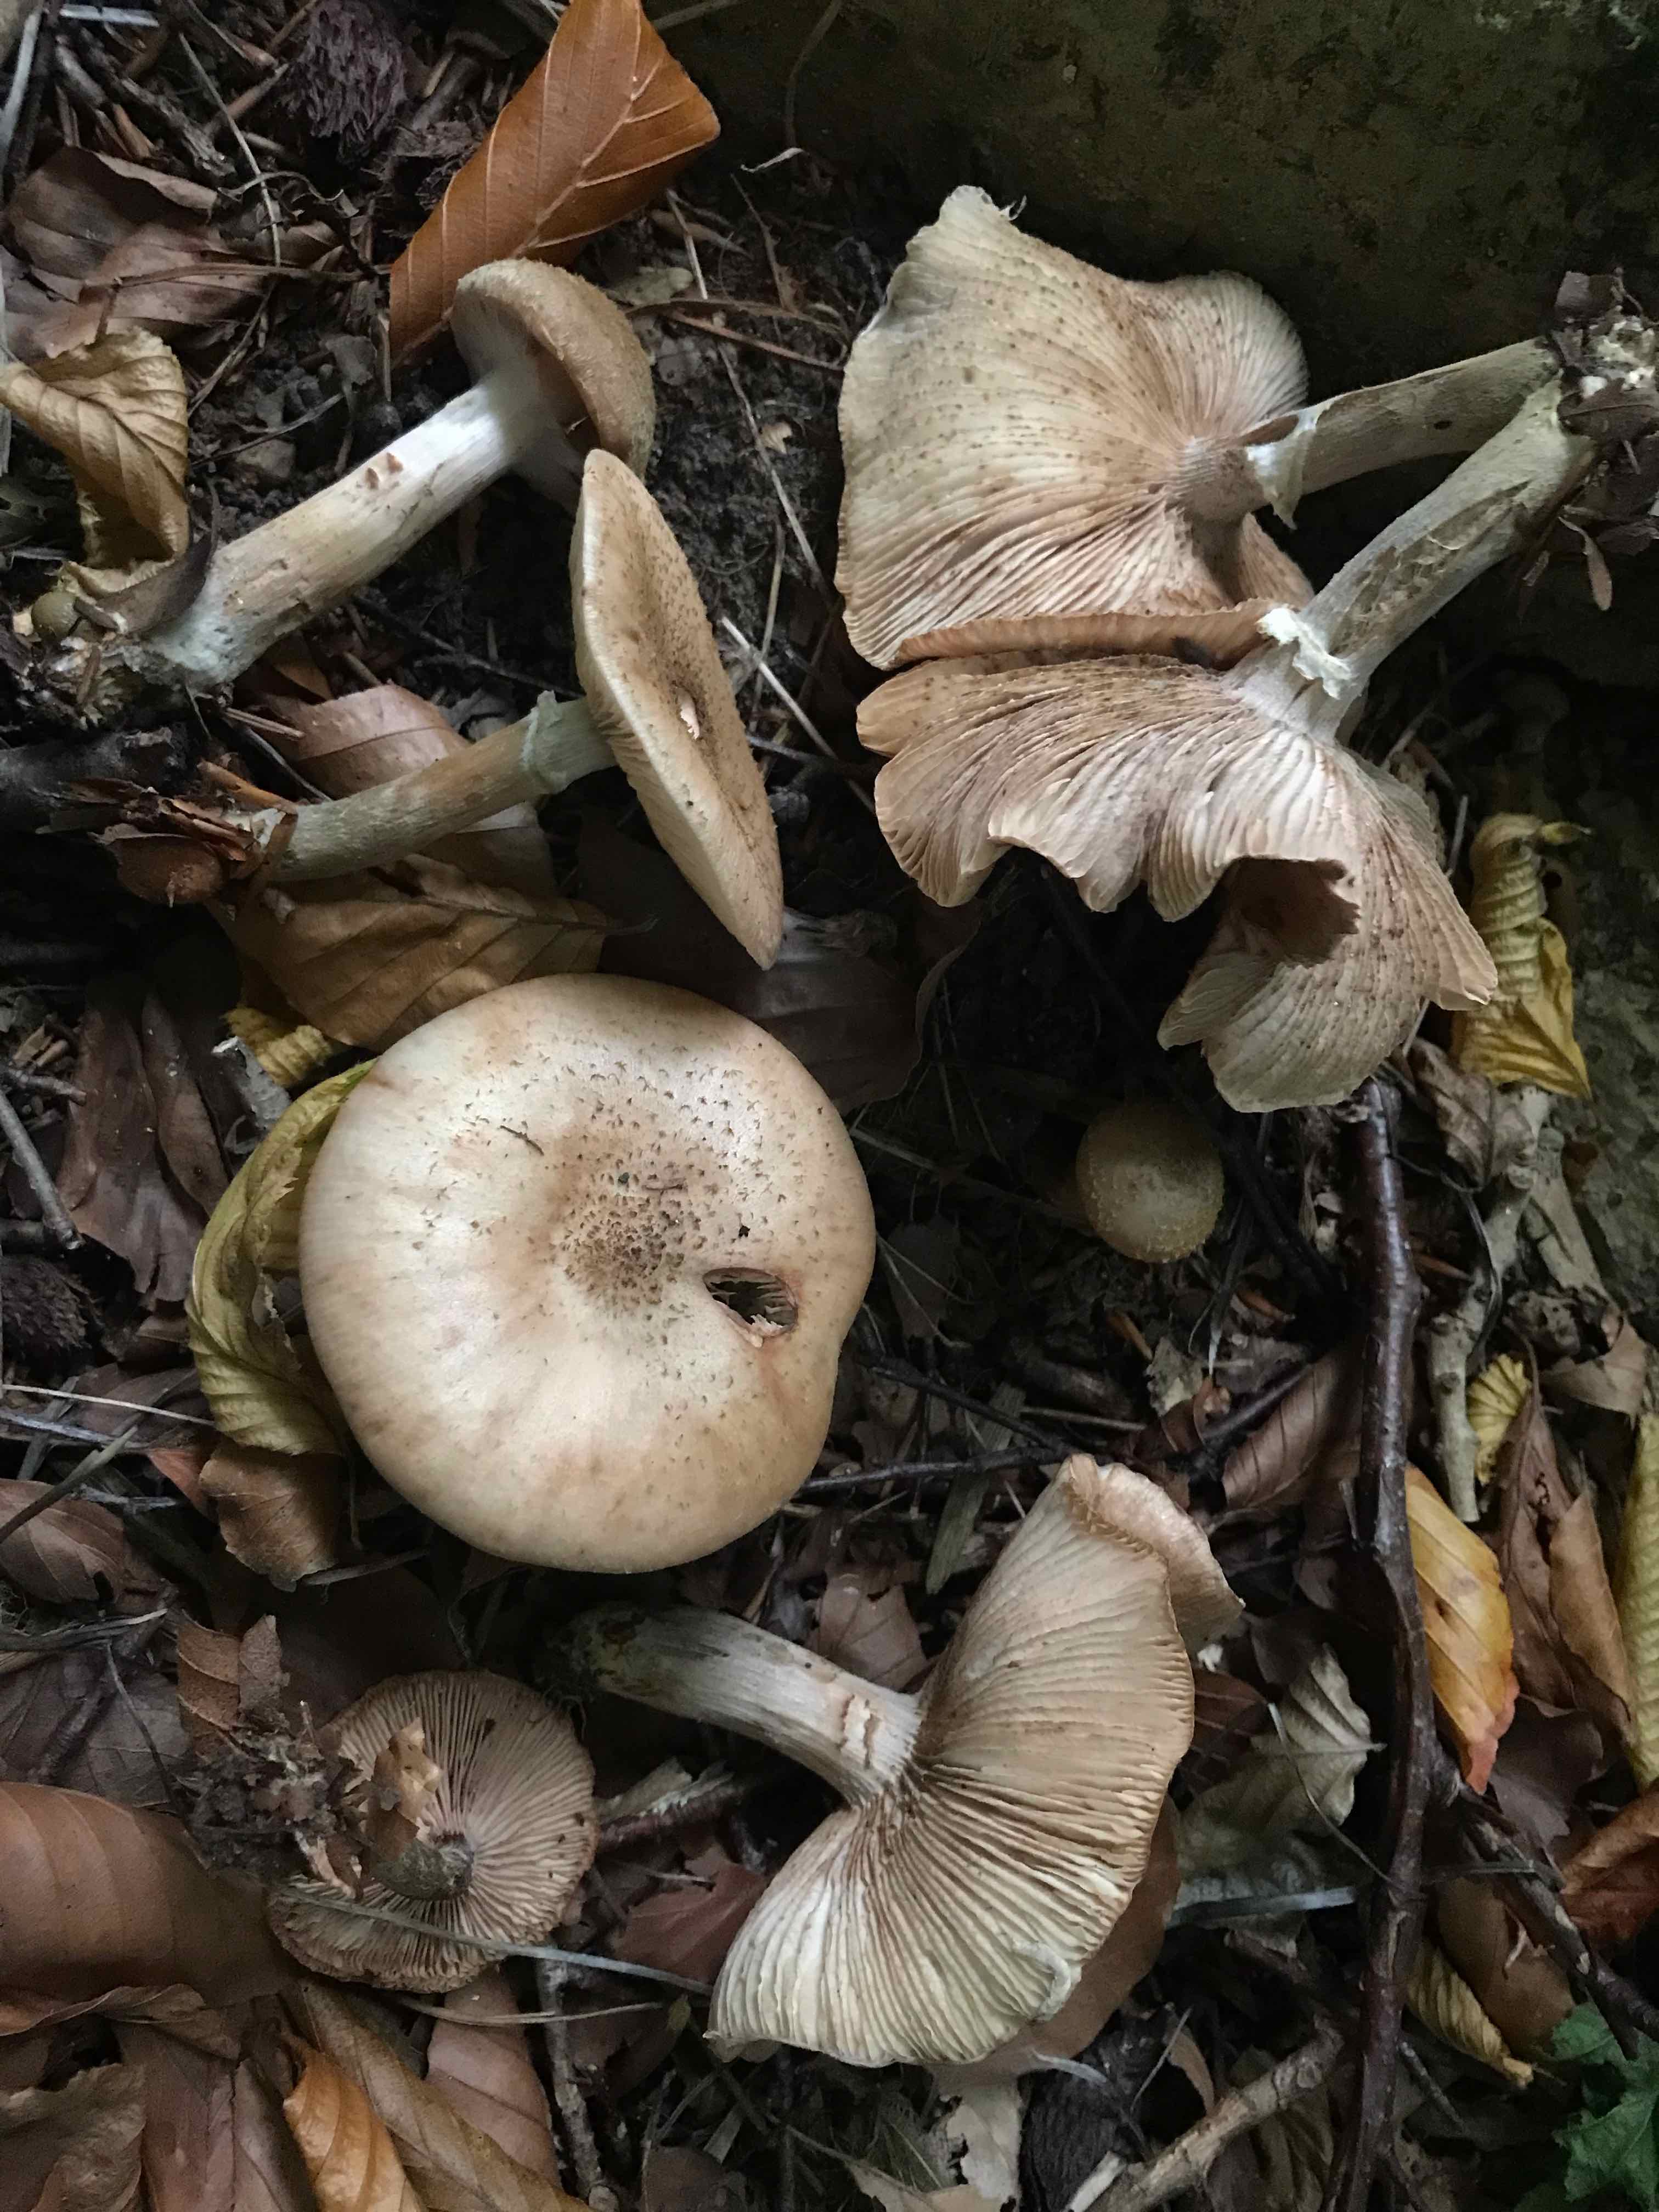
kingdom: Fungi
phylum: Basidiomycota
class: Agaricomycetes
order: Agaricales
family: Physalacriaceae
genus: Armillaria
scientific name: Armillaria
